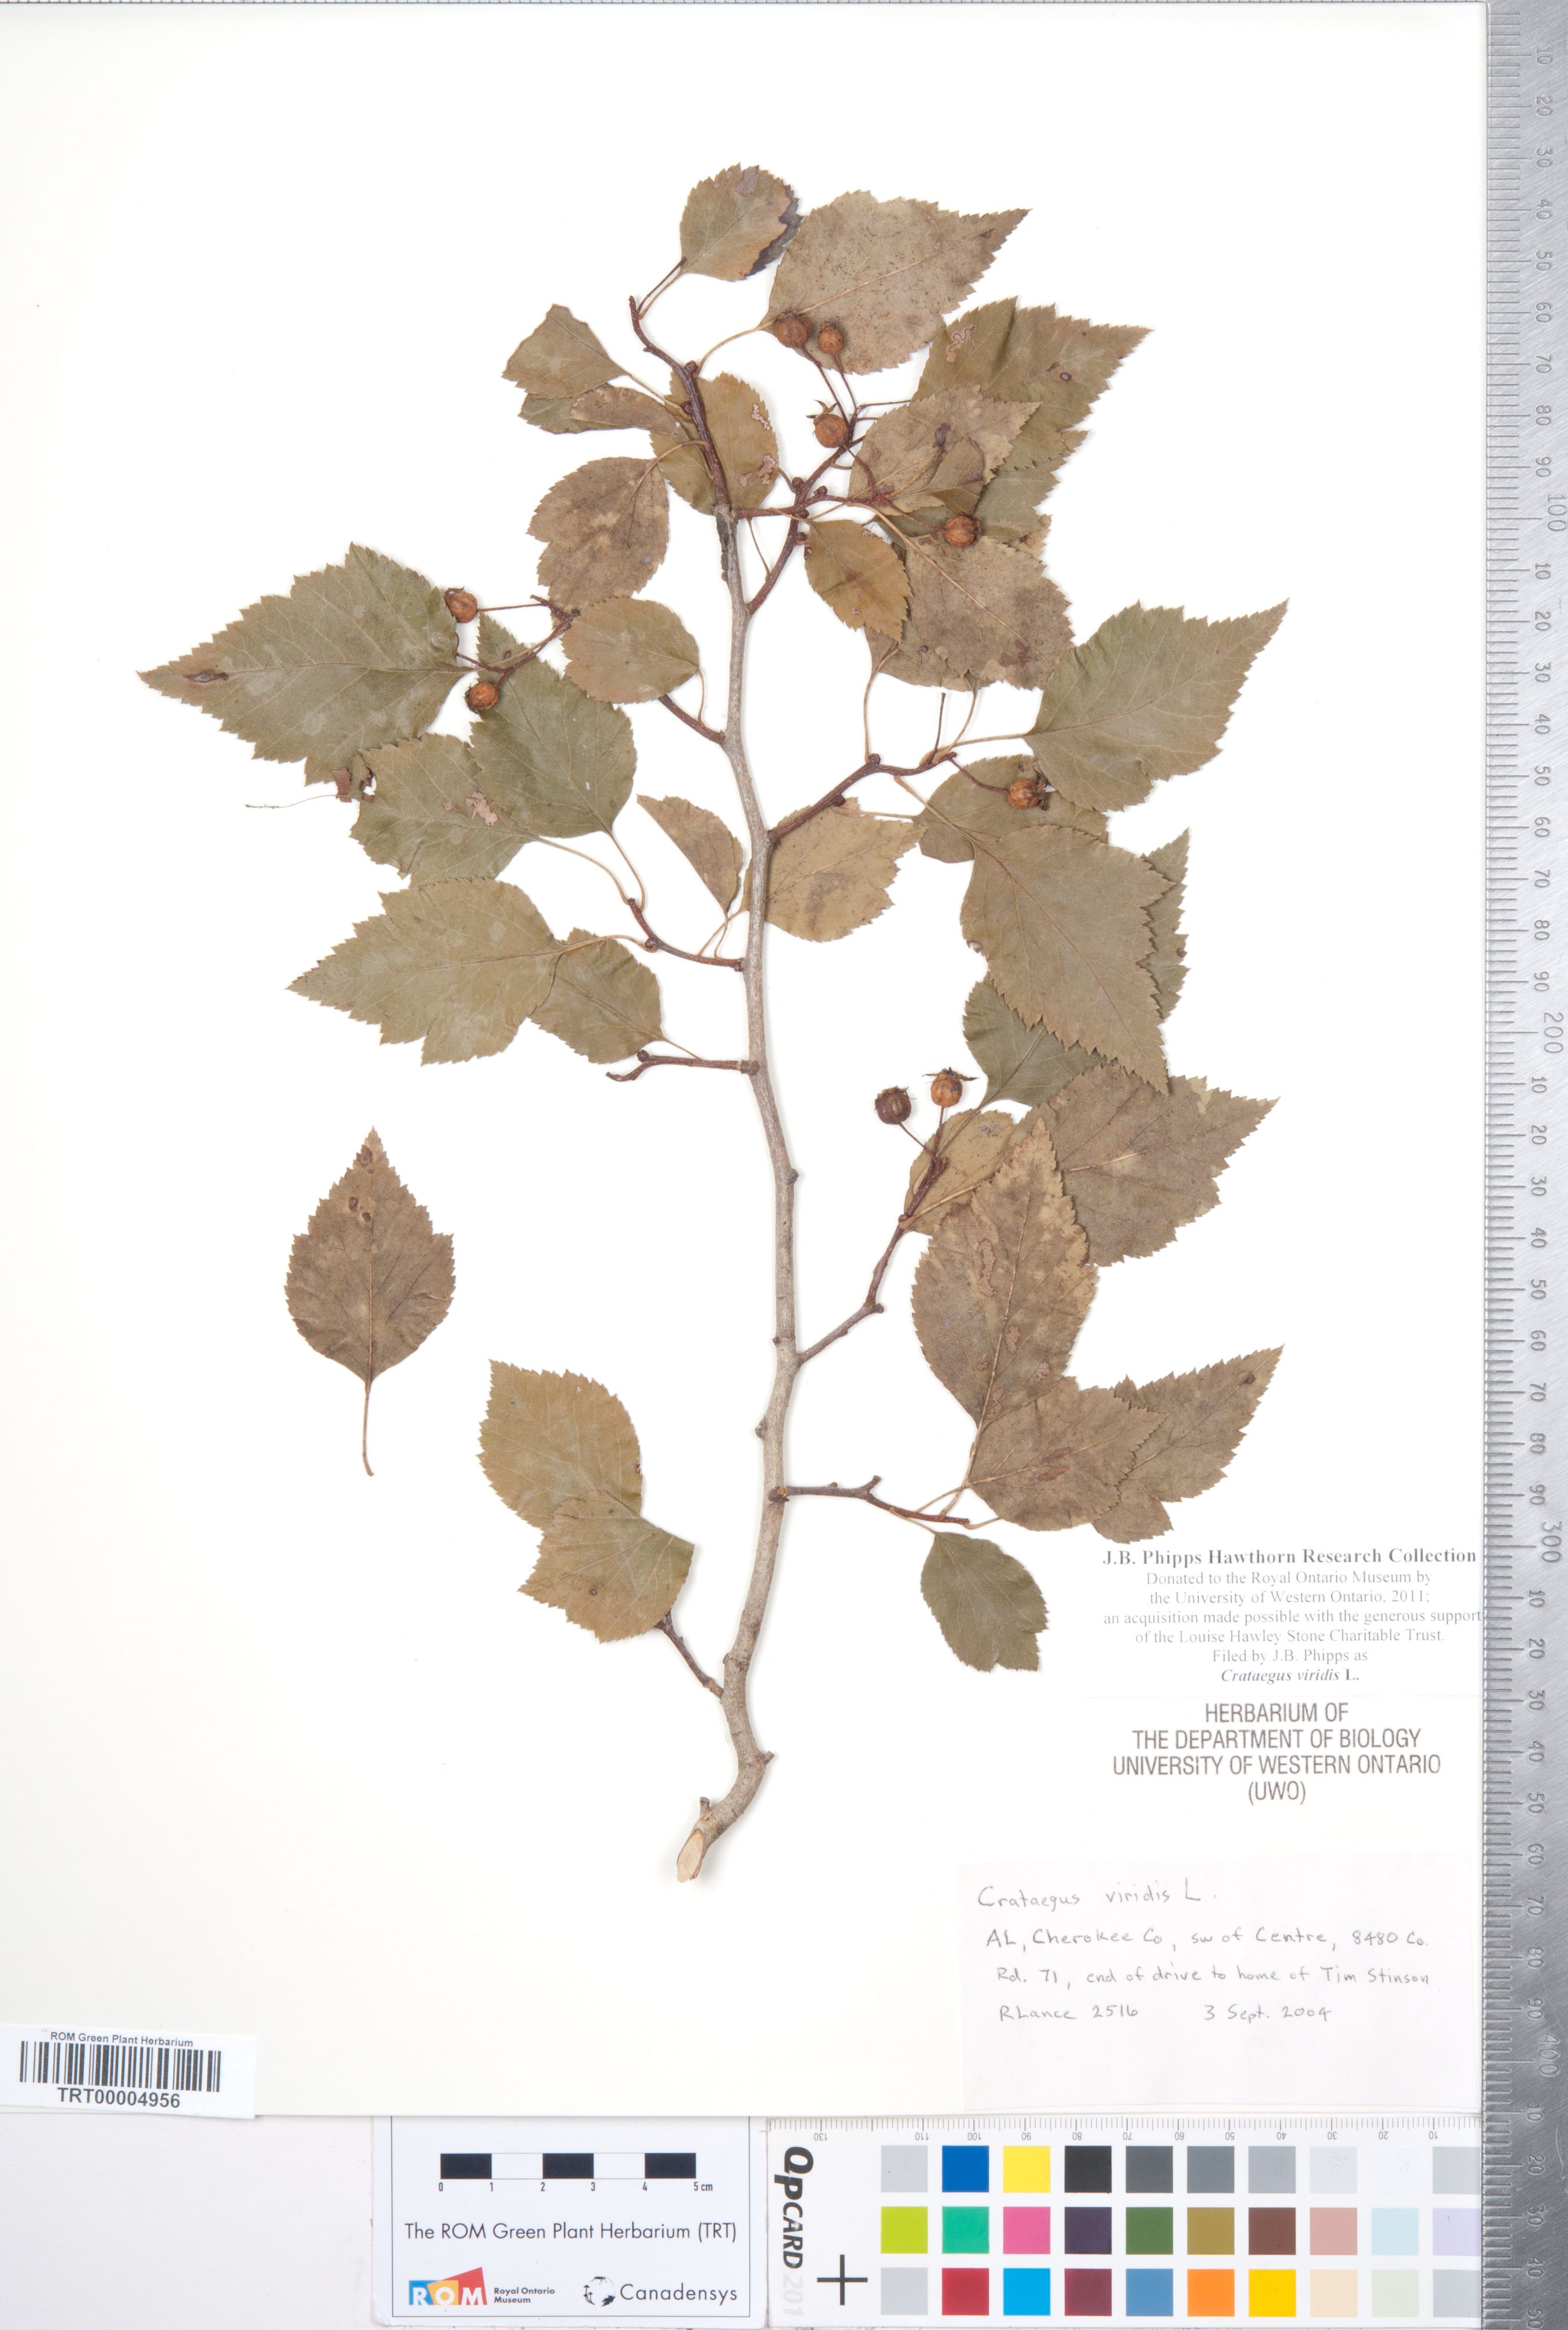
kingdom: Plantae
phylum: Tracheophyta
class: Magnoliopsida
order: Rosales
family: Rosaceae
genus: Crataegus
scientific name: Crataegus viridis
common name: Southernthorn
